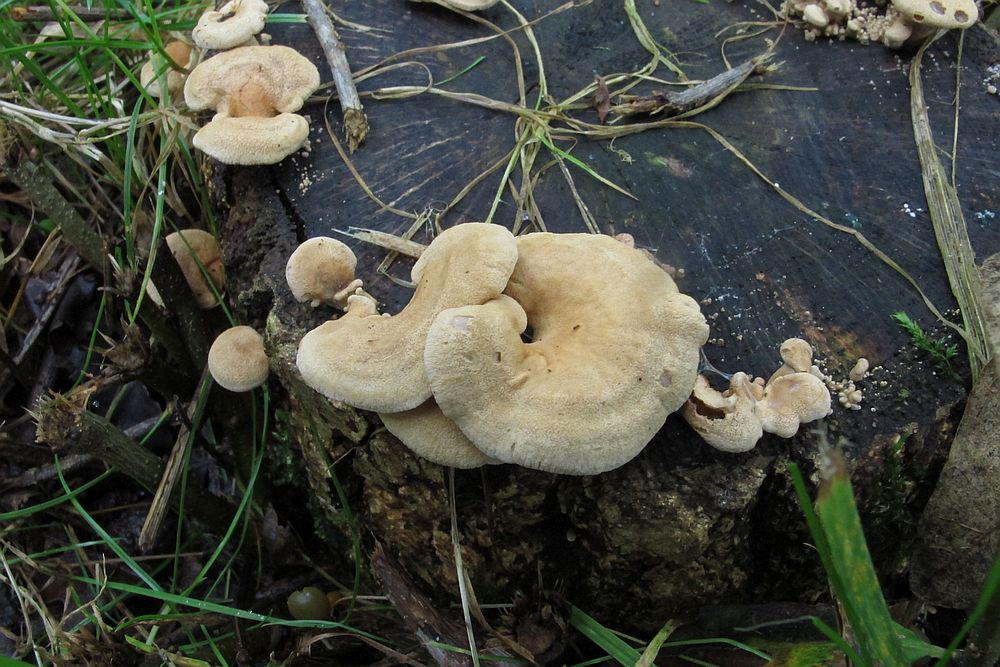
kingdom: Fungi
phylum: Basidiomycota
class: Agaricomycetes
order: Agaricales
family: Mycenaceae
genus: Panellus
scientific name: Panellus stipticus
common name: kliddet epaulethat
